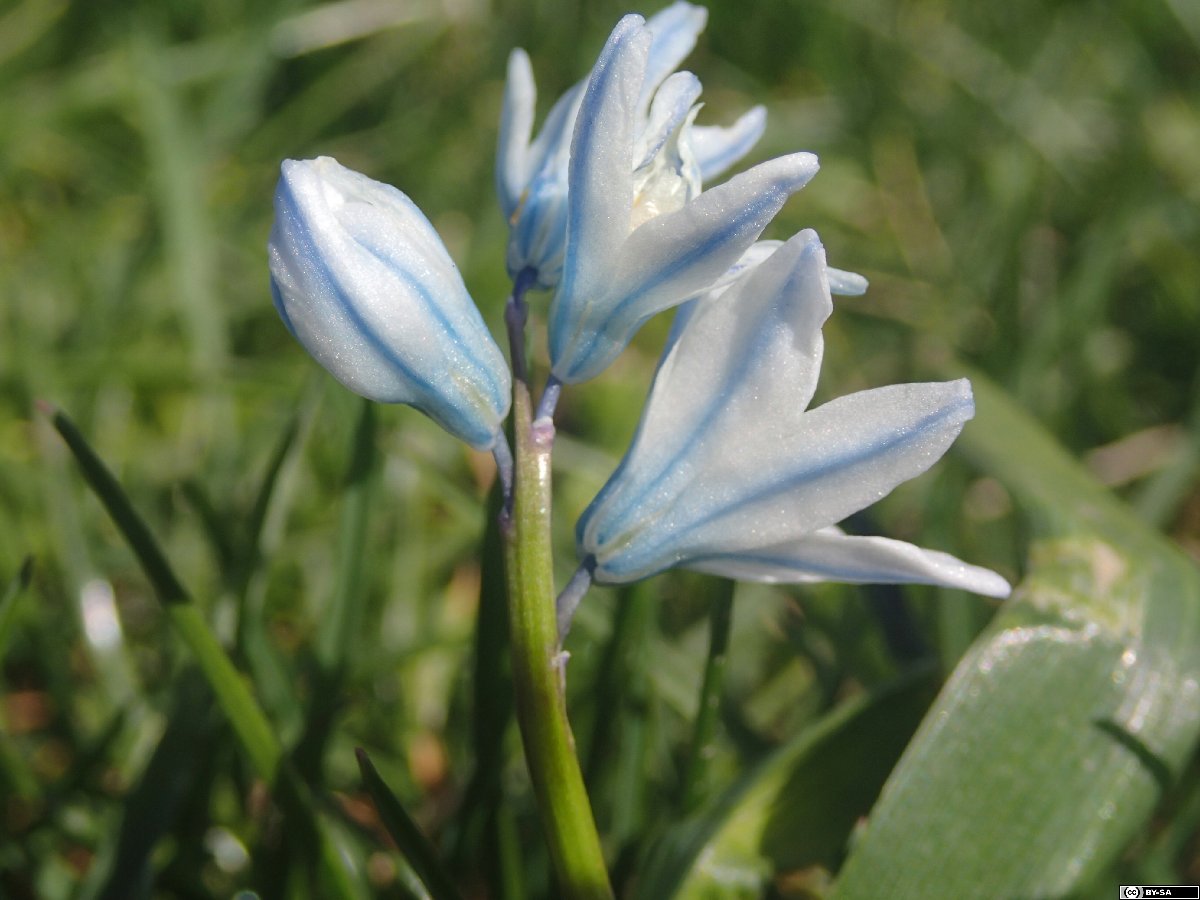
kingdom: Plantae
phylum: Tracheophyta
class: Liliopsida
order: Asparagales
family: Asparagaceae
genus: Puschkinia
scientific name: Puschkinia scilloides
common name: Striped squill
